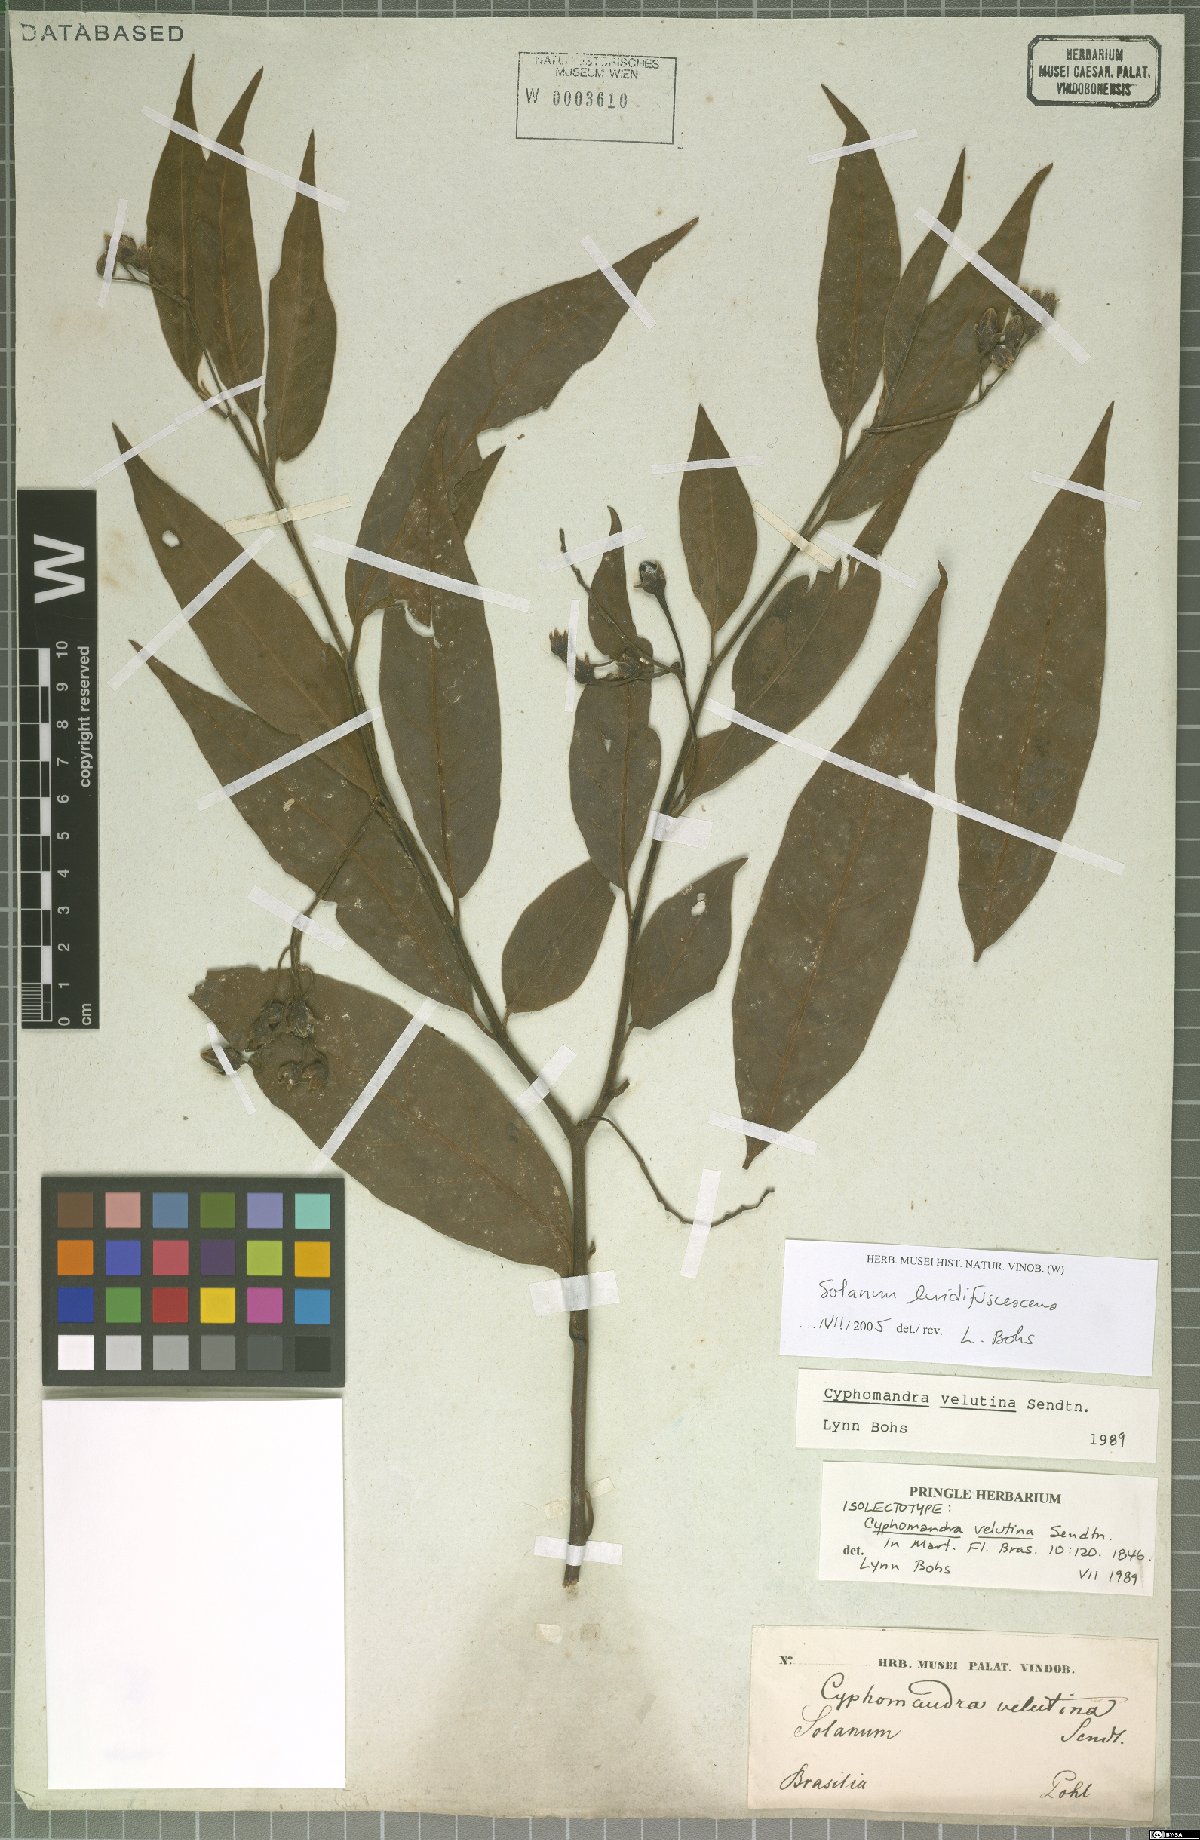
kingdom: Plantae
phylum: Tracheophyta
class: Magnoliopsida
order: Solanales
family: Solanaceae
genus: Solanum
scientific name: Solanum luridifuscescens
